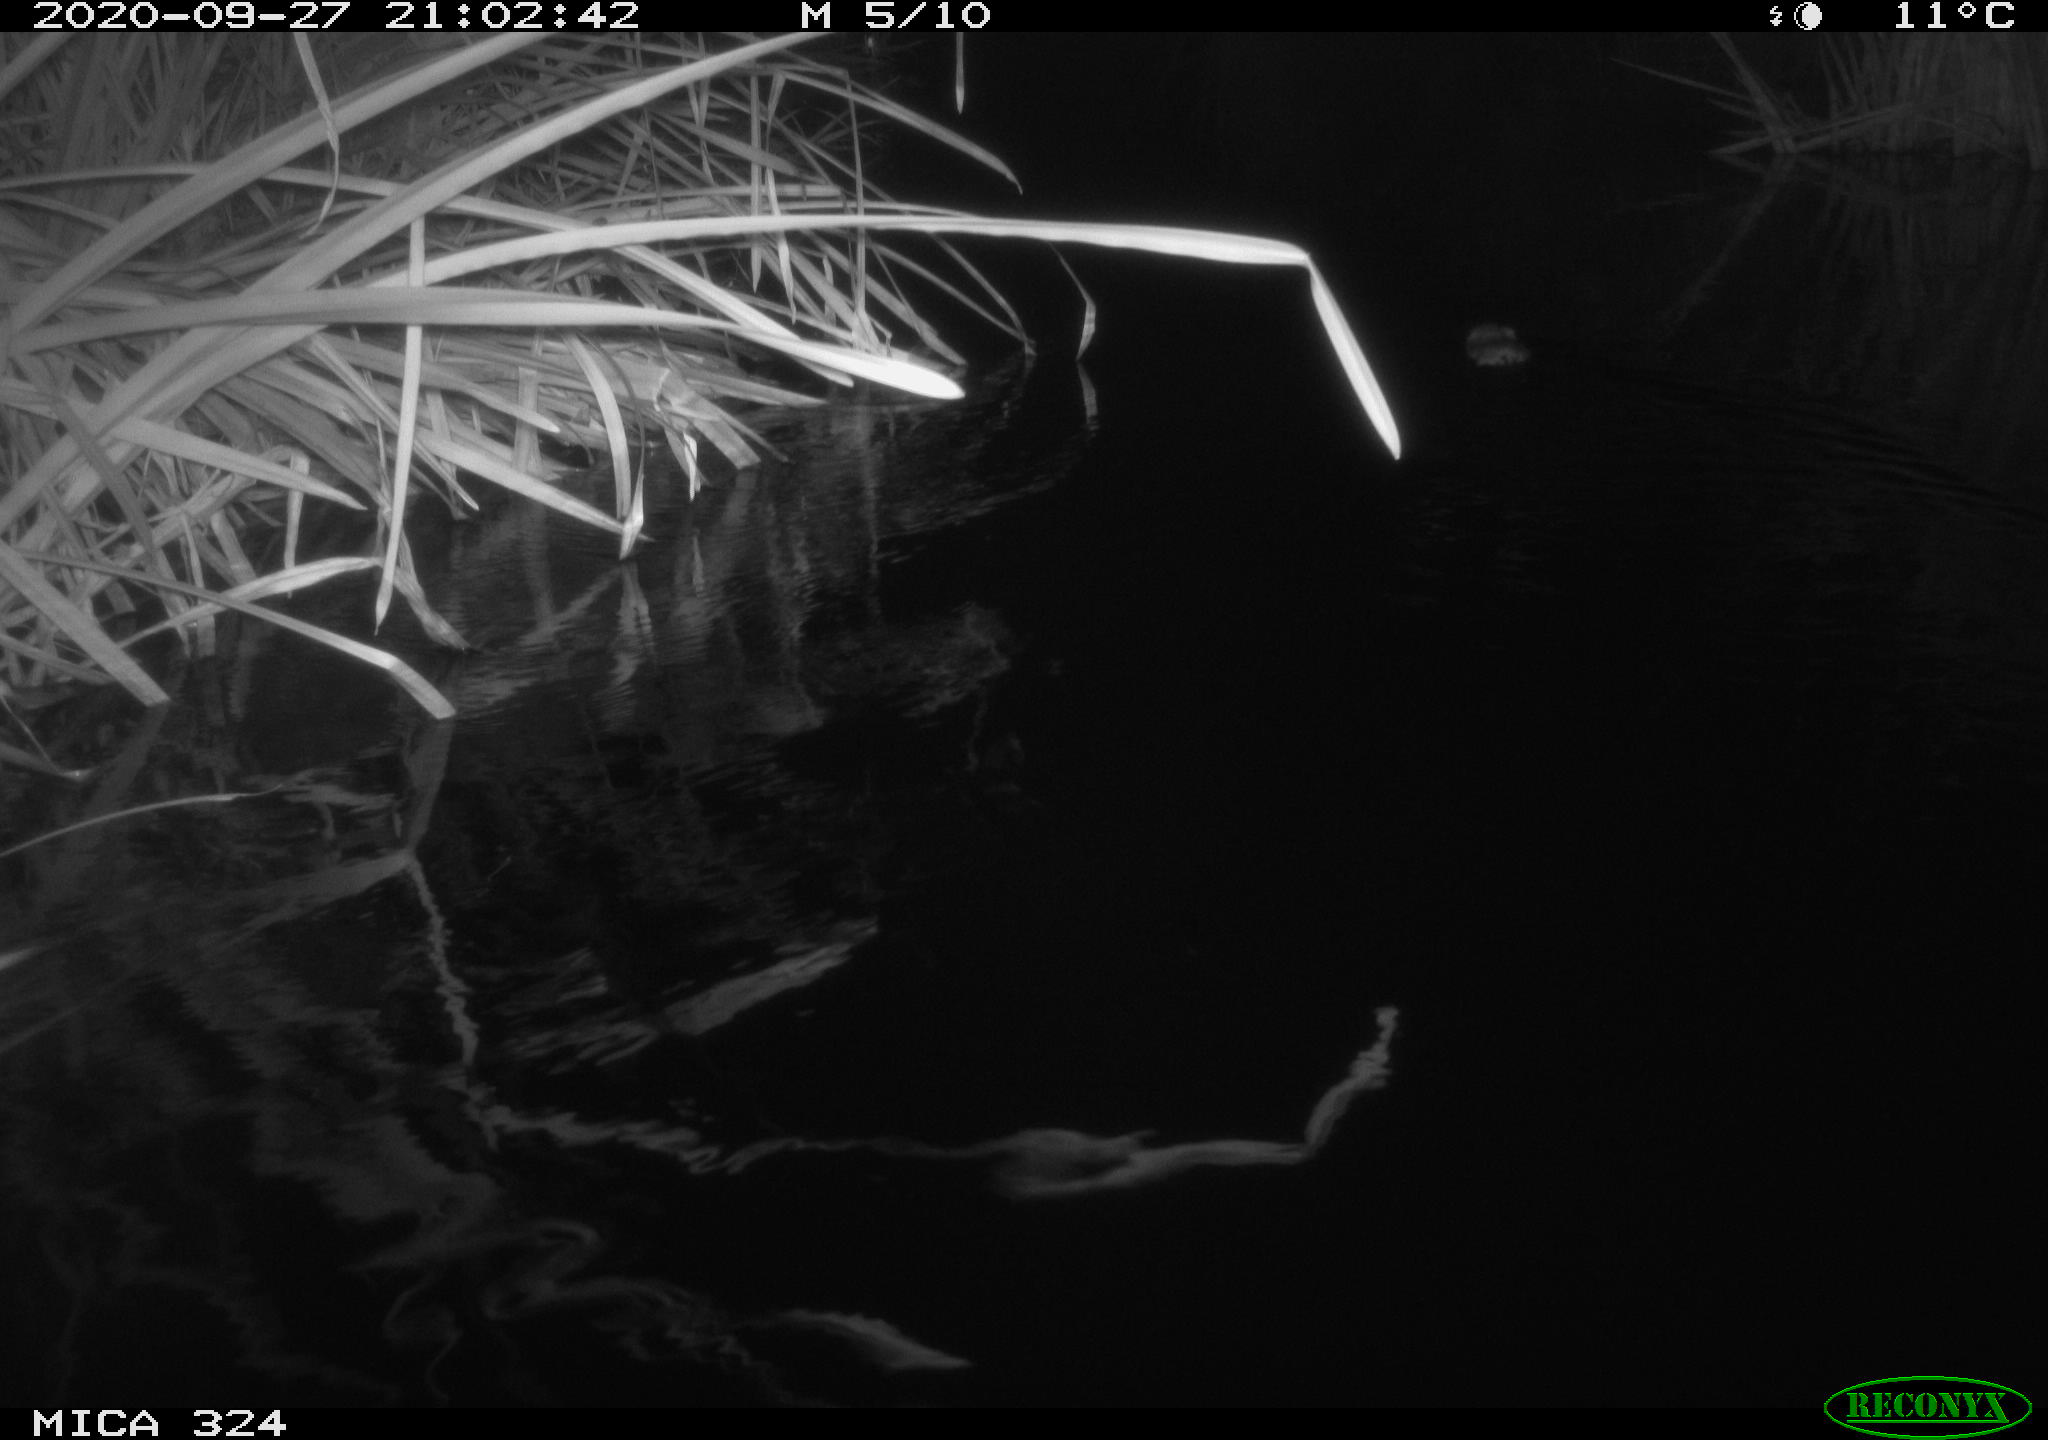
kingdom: Animalia
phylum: Chordata
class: Mammalia
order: Rodentia
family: Cricetidae
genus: Ondatra
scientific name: Ondatra zibethicus
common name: Muskrat
